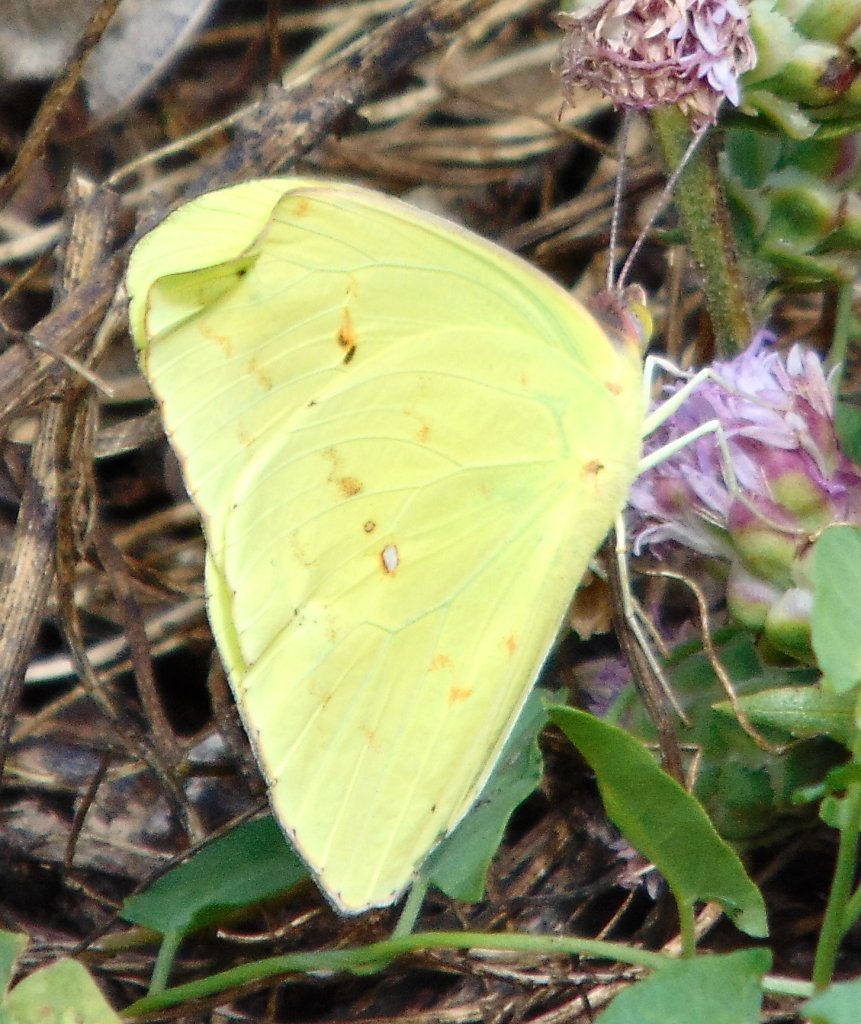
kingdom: Animalia
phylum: Arthropoda
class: Insecta
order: Lepidoptera
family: Pieridae
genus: Phoebis
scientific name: Phoebis sennae
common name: Cloudless Sulphur
